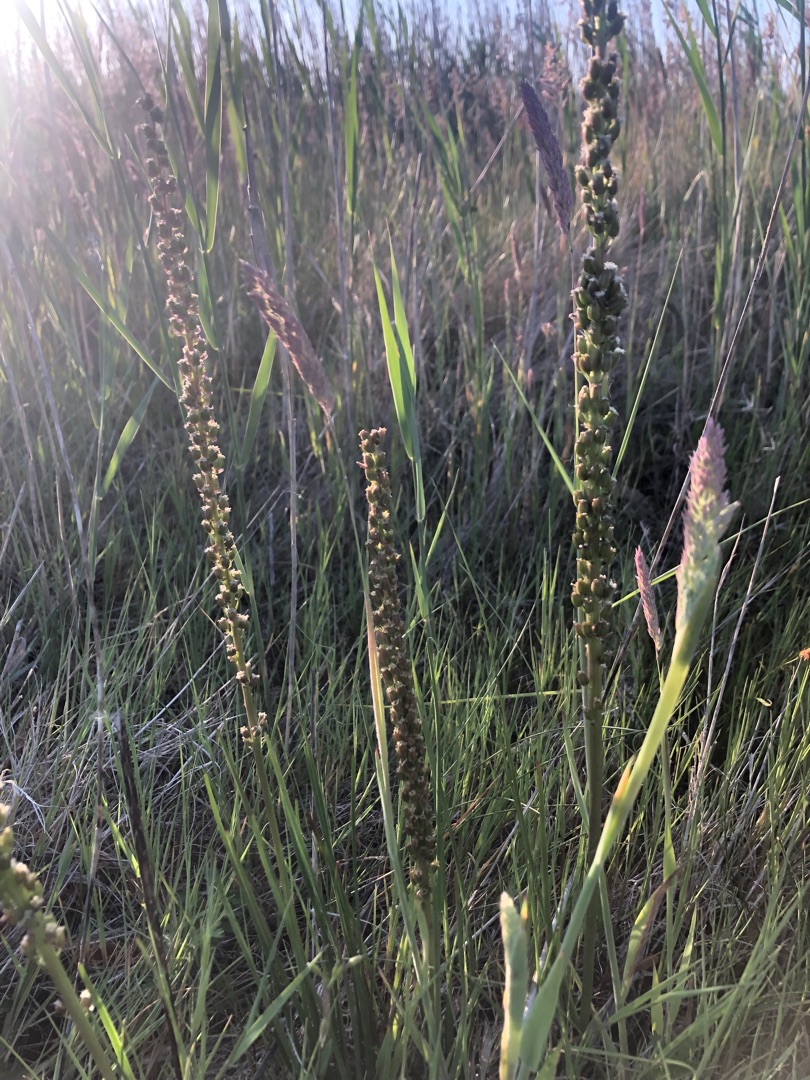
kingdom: Plantae
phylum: Tracheophyta
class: Liliopsida
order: Alismatales
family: Juncaginaceae
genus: Triglochin
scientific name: Triglochin maritima
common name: Strand-trehage
